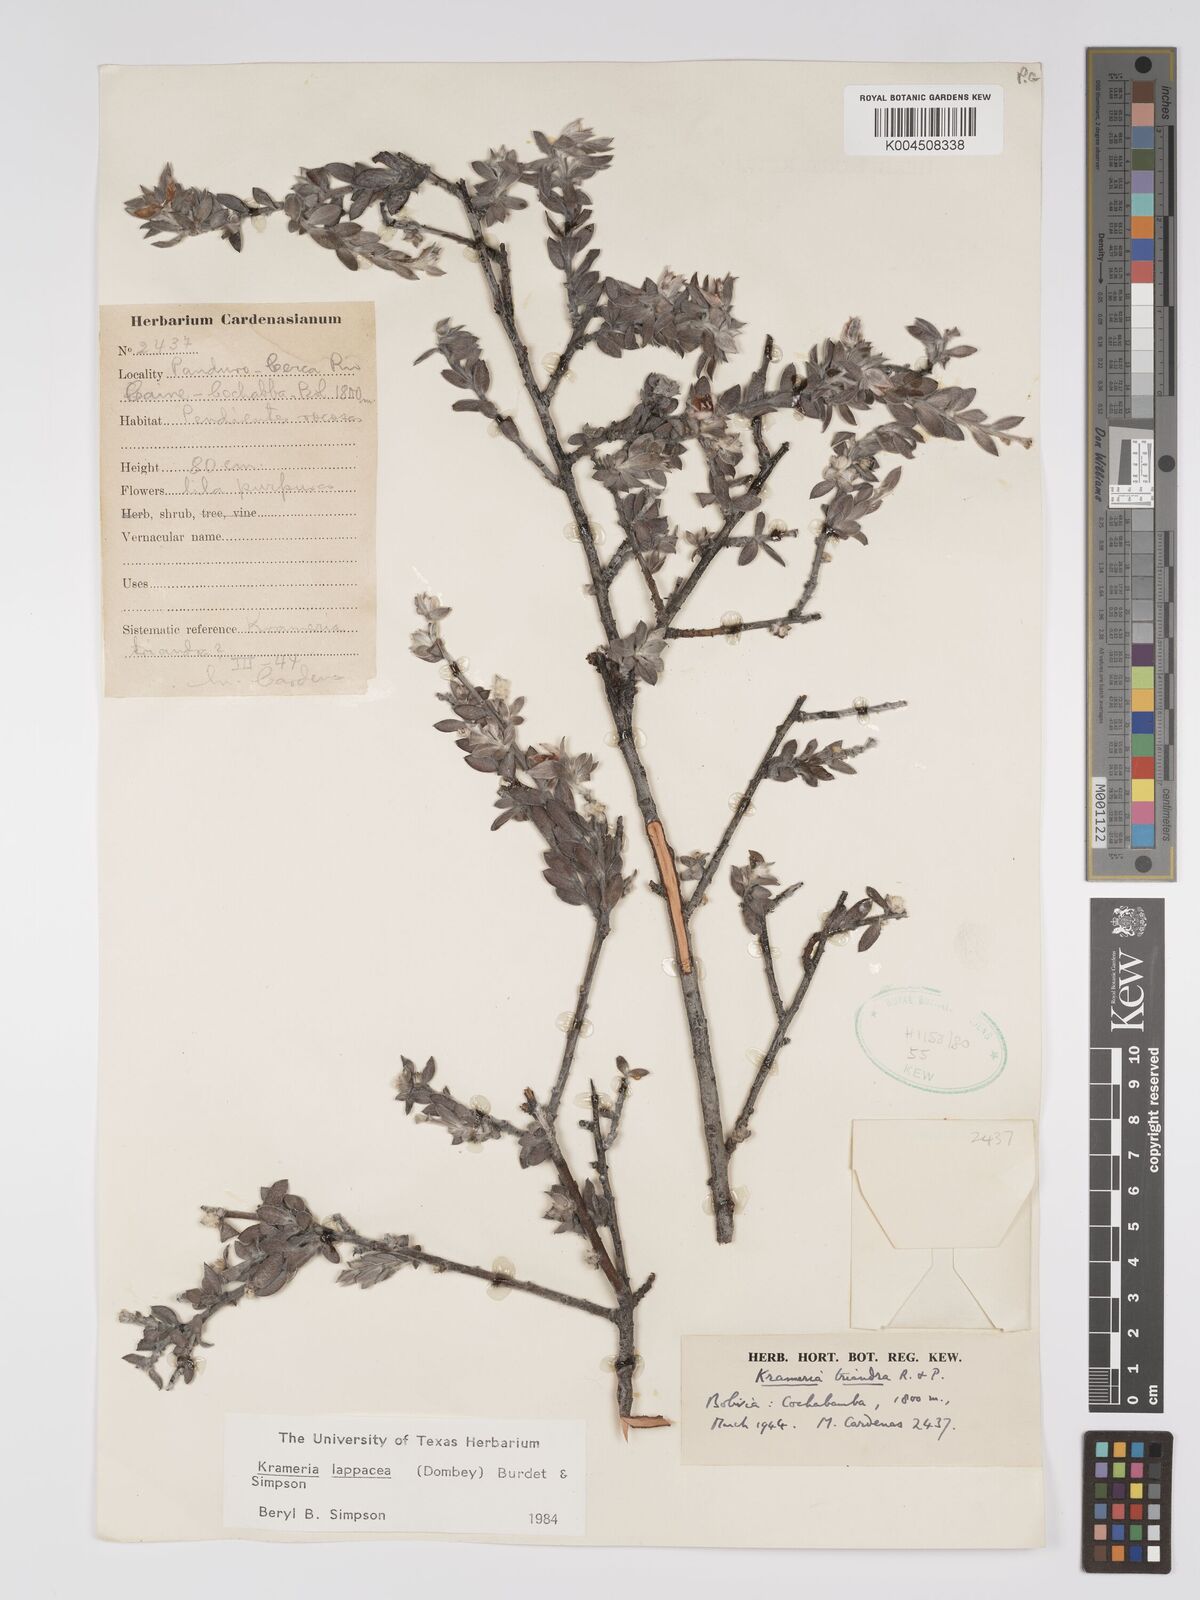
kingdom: Plantae
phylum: Tracheophyta
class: Magnoliopsida
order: Zygophyllales
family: Krameriaceae
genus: Krameria
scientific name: Krameria lappacea
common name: Rhatany
